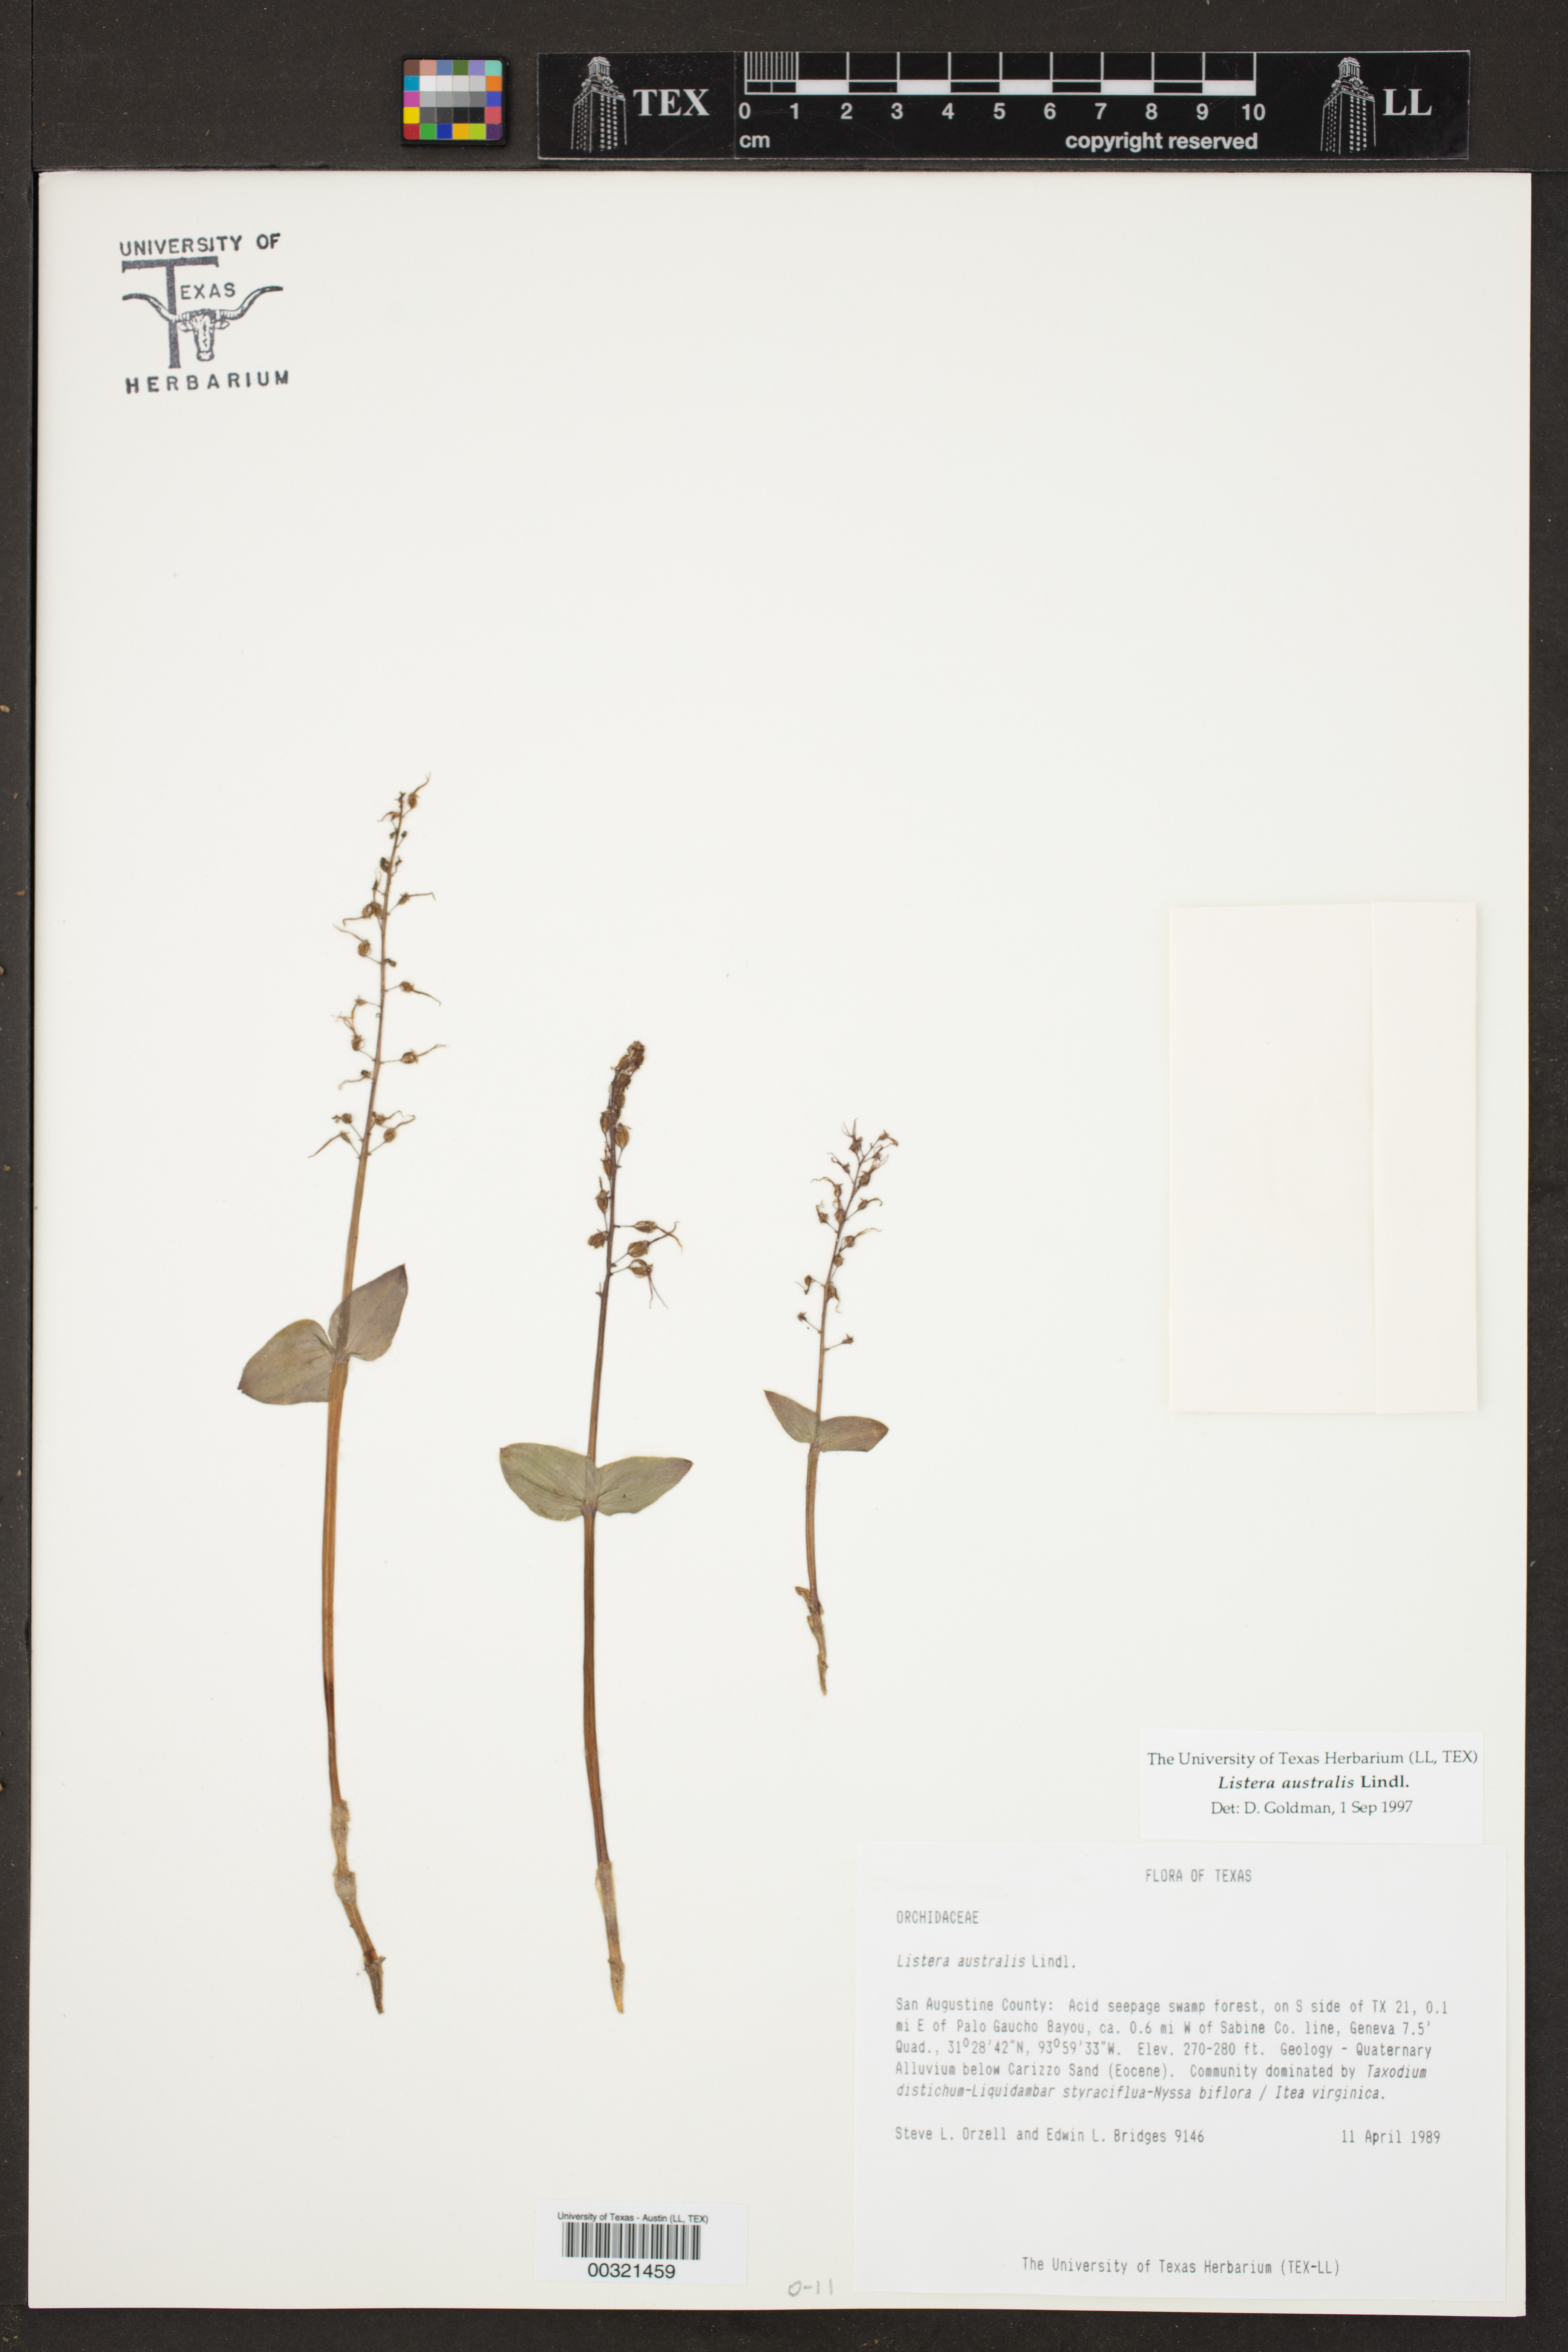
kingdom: Plantae
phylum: Tracheophyta
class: Liliopsida
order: Asparagales
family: Orchidaceae
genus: Neottia
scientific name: Neottia bifolia
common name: Southern twayblade
